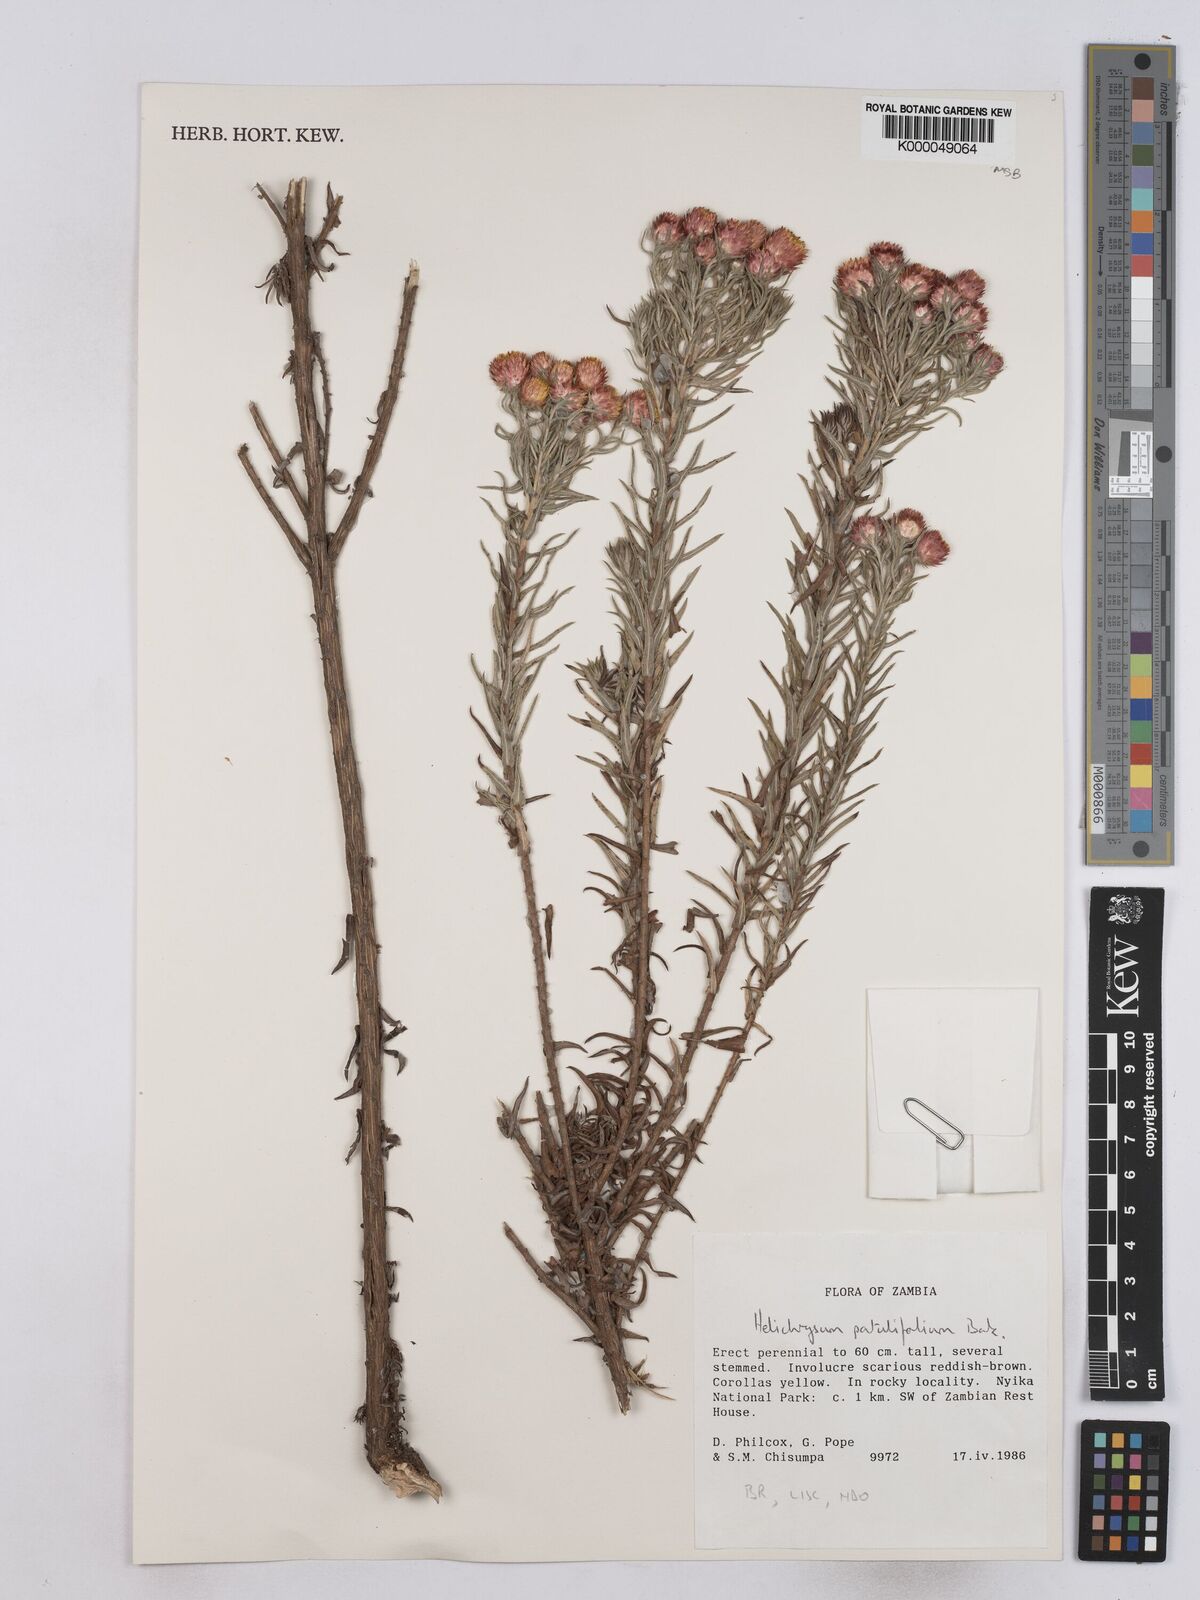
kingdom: Plantae
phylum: Tracheophyta
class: Magnoliopsida
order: Asterales
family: Asteraceae
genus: Helichrysum
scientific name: Helichrysum patulifolium
